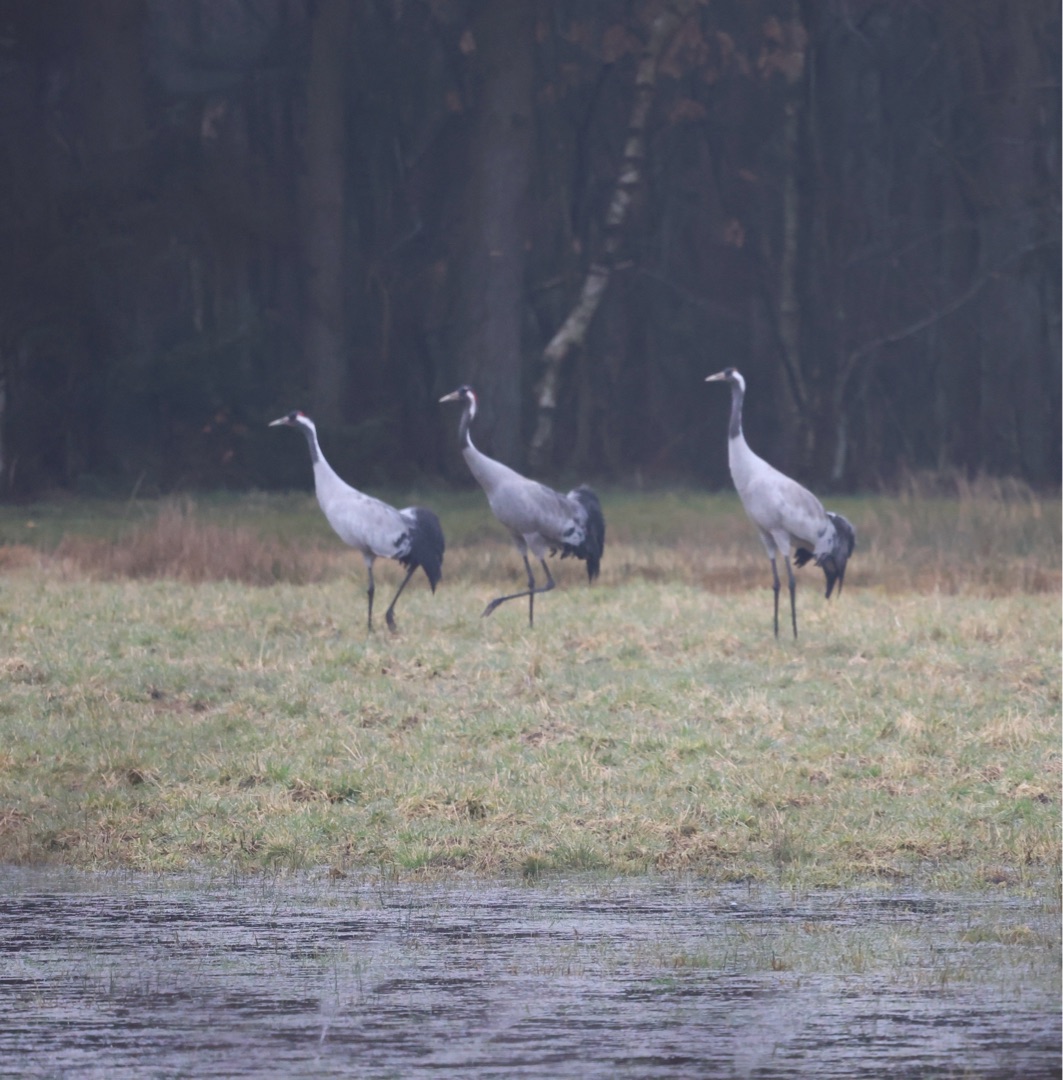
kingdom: Animalia
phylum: Chordata
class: Aves
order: Gruiformes
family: Gruidae
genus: Grus
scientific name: Grus grus
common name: Trane
